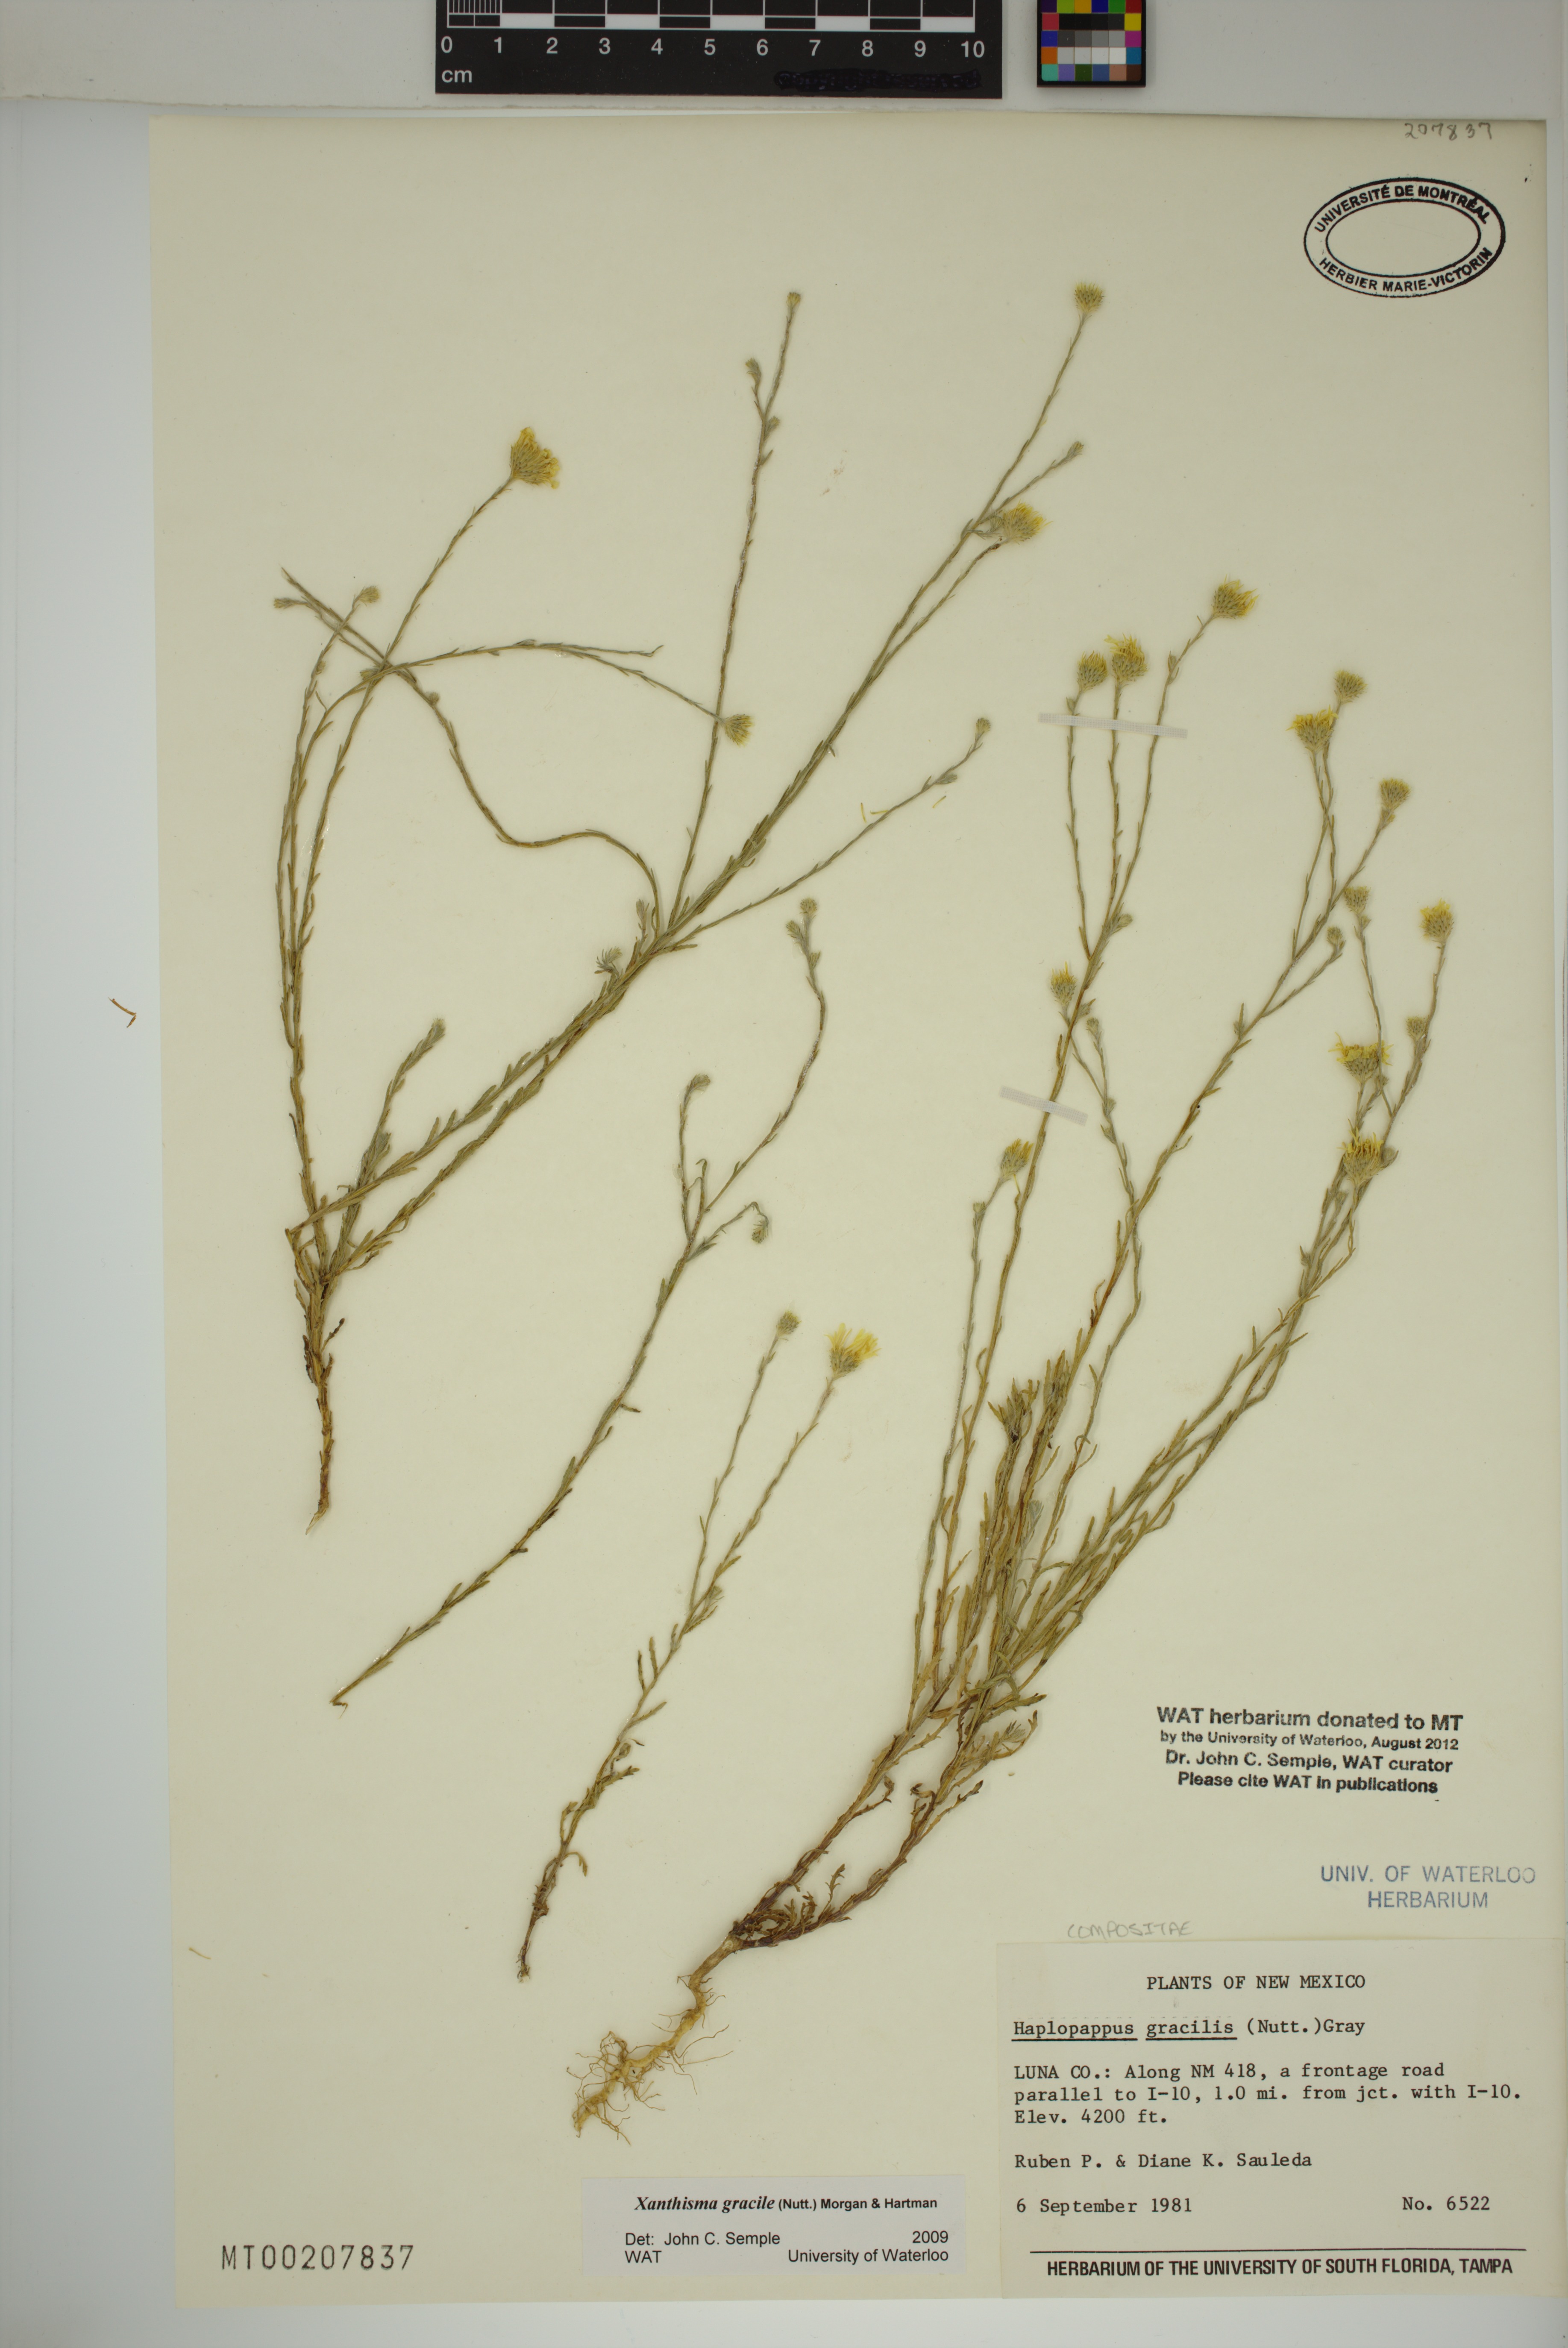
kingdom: Plantae
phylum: Tracheophyta
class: Magnoliopsida
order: Asterales
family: Asteraceae
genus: Xanthisma
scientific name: Xanthisma gracile
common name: Slender goldenweed
